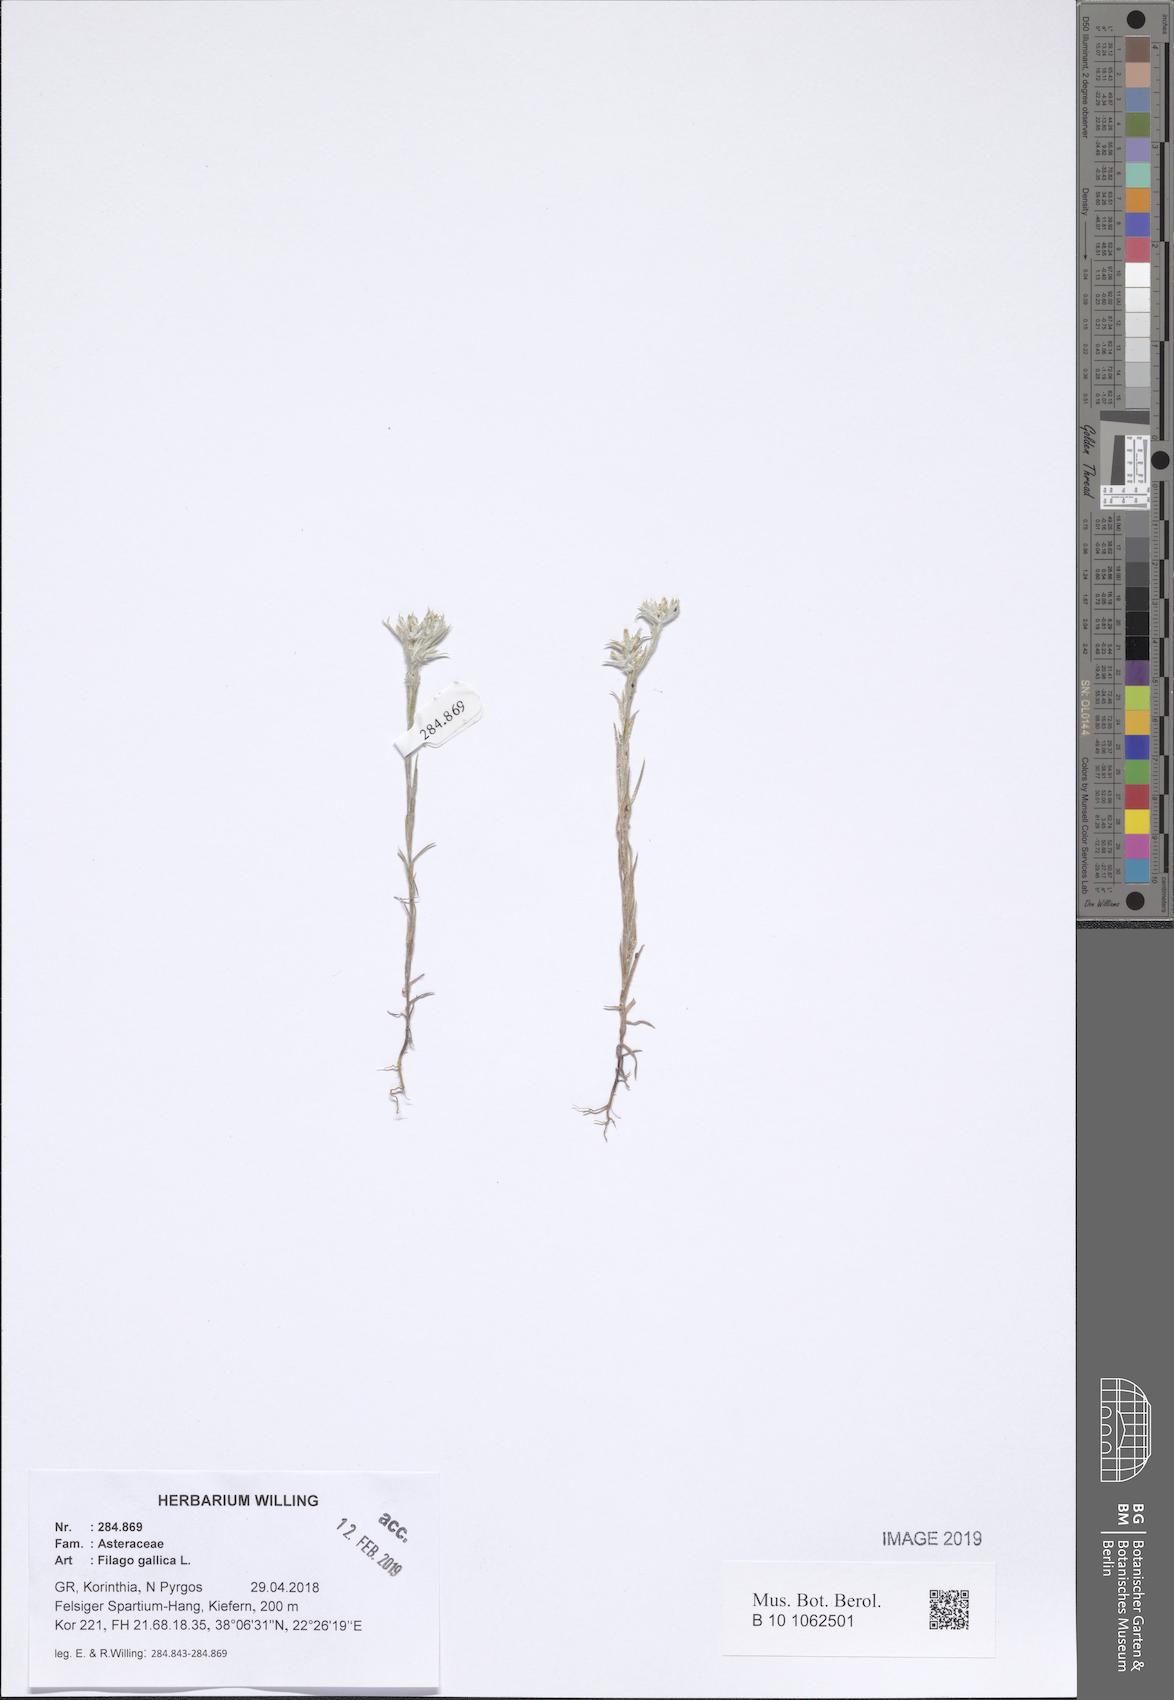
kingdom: Plantae
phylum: Tracheophyta
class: Magnoliopsida
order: Asterales
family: Asteraceae
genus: Logfia
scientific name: Logfia gallica
